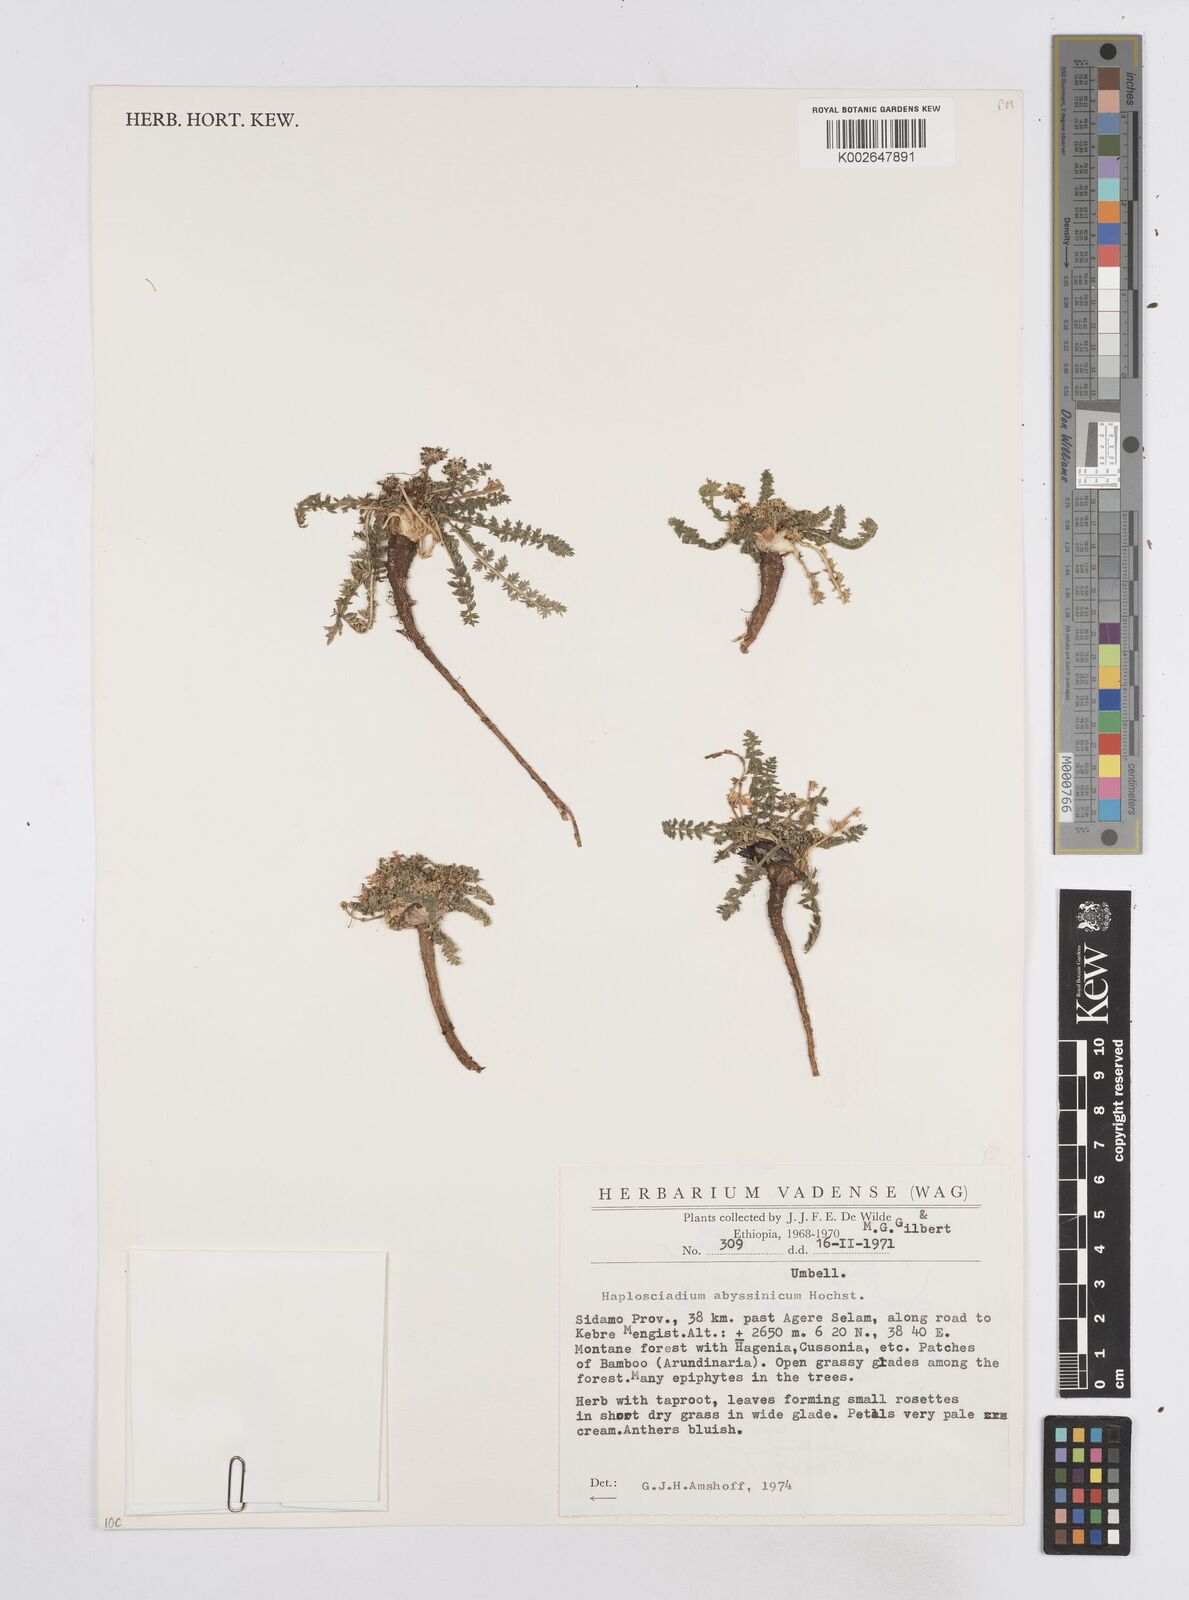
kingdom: Plantae
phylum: Tracheophyta
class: Magnoliopsida
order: Apiales
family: Apiaceae
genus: Haplosciadium
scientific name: Haplosciadium abyssinicum
